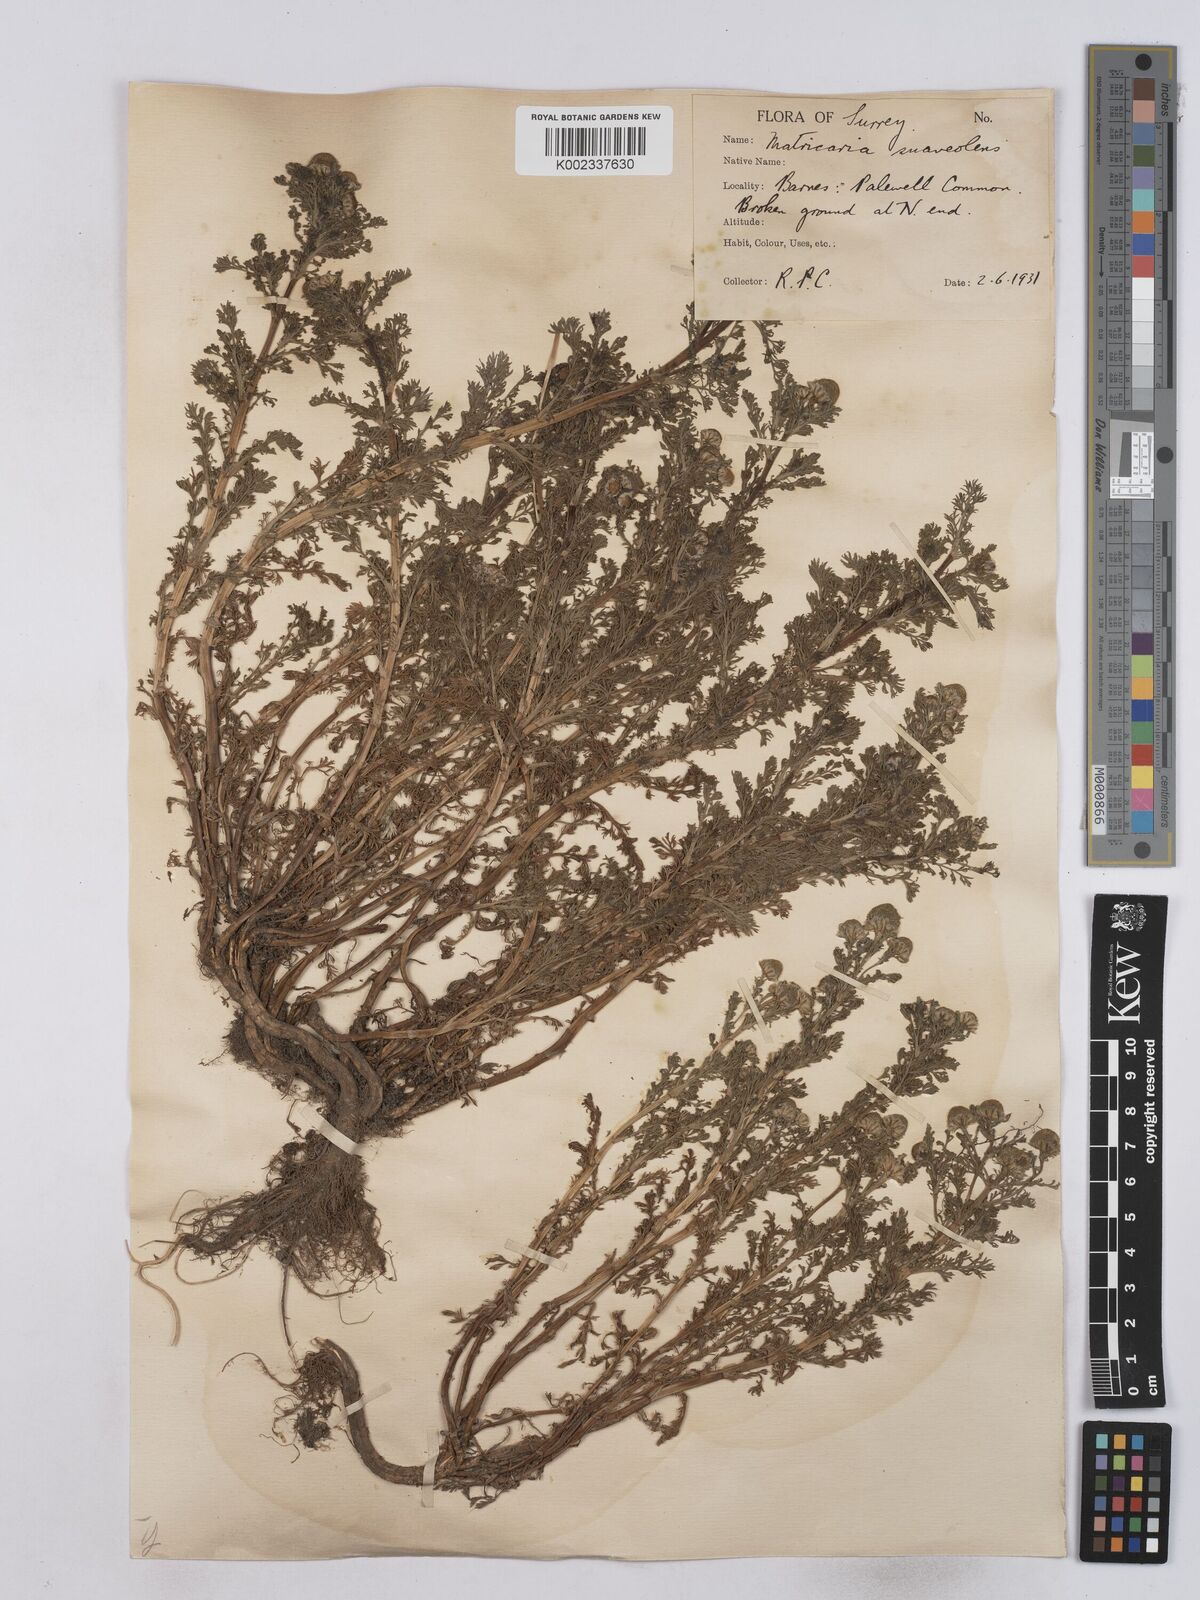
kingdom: Plantae
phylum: Tracheophyta
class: Magnoliopsida
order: Asterales
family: Asteraceae
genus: Matricaria
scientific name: Matricaria discoidea
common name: Disc mayweed
